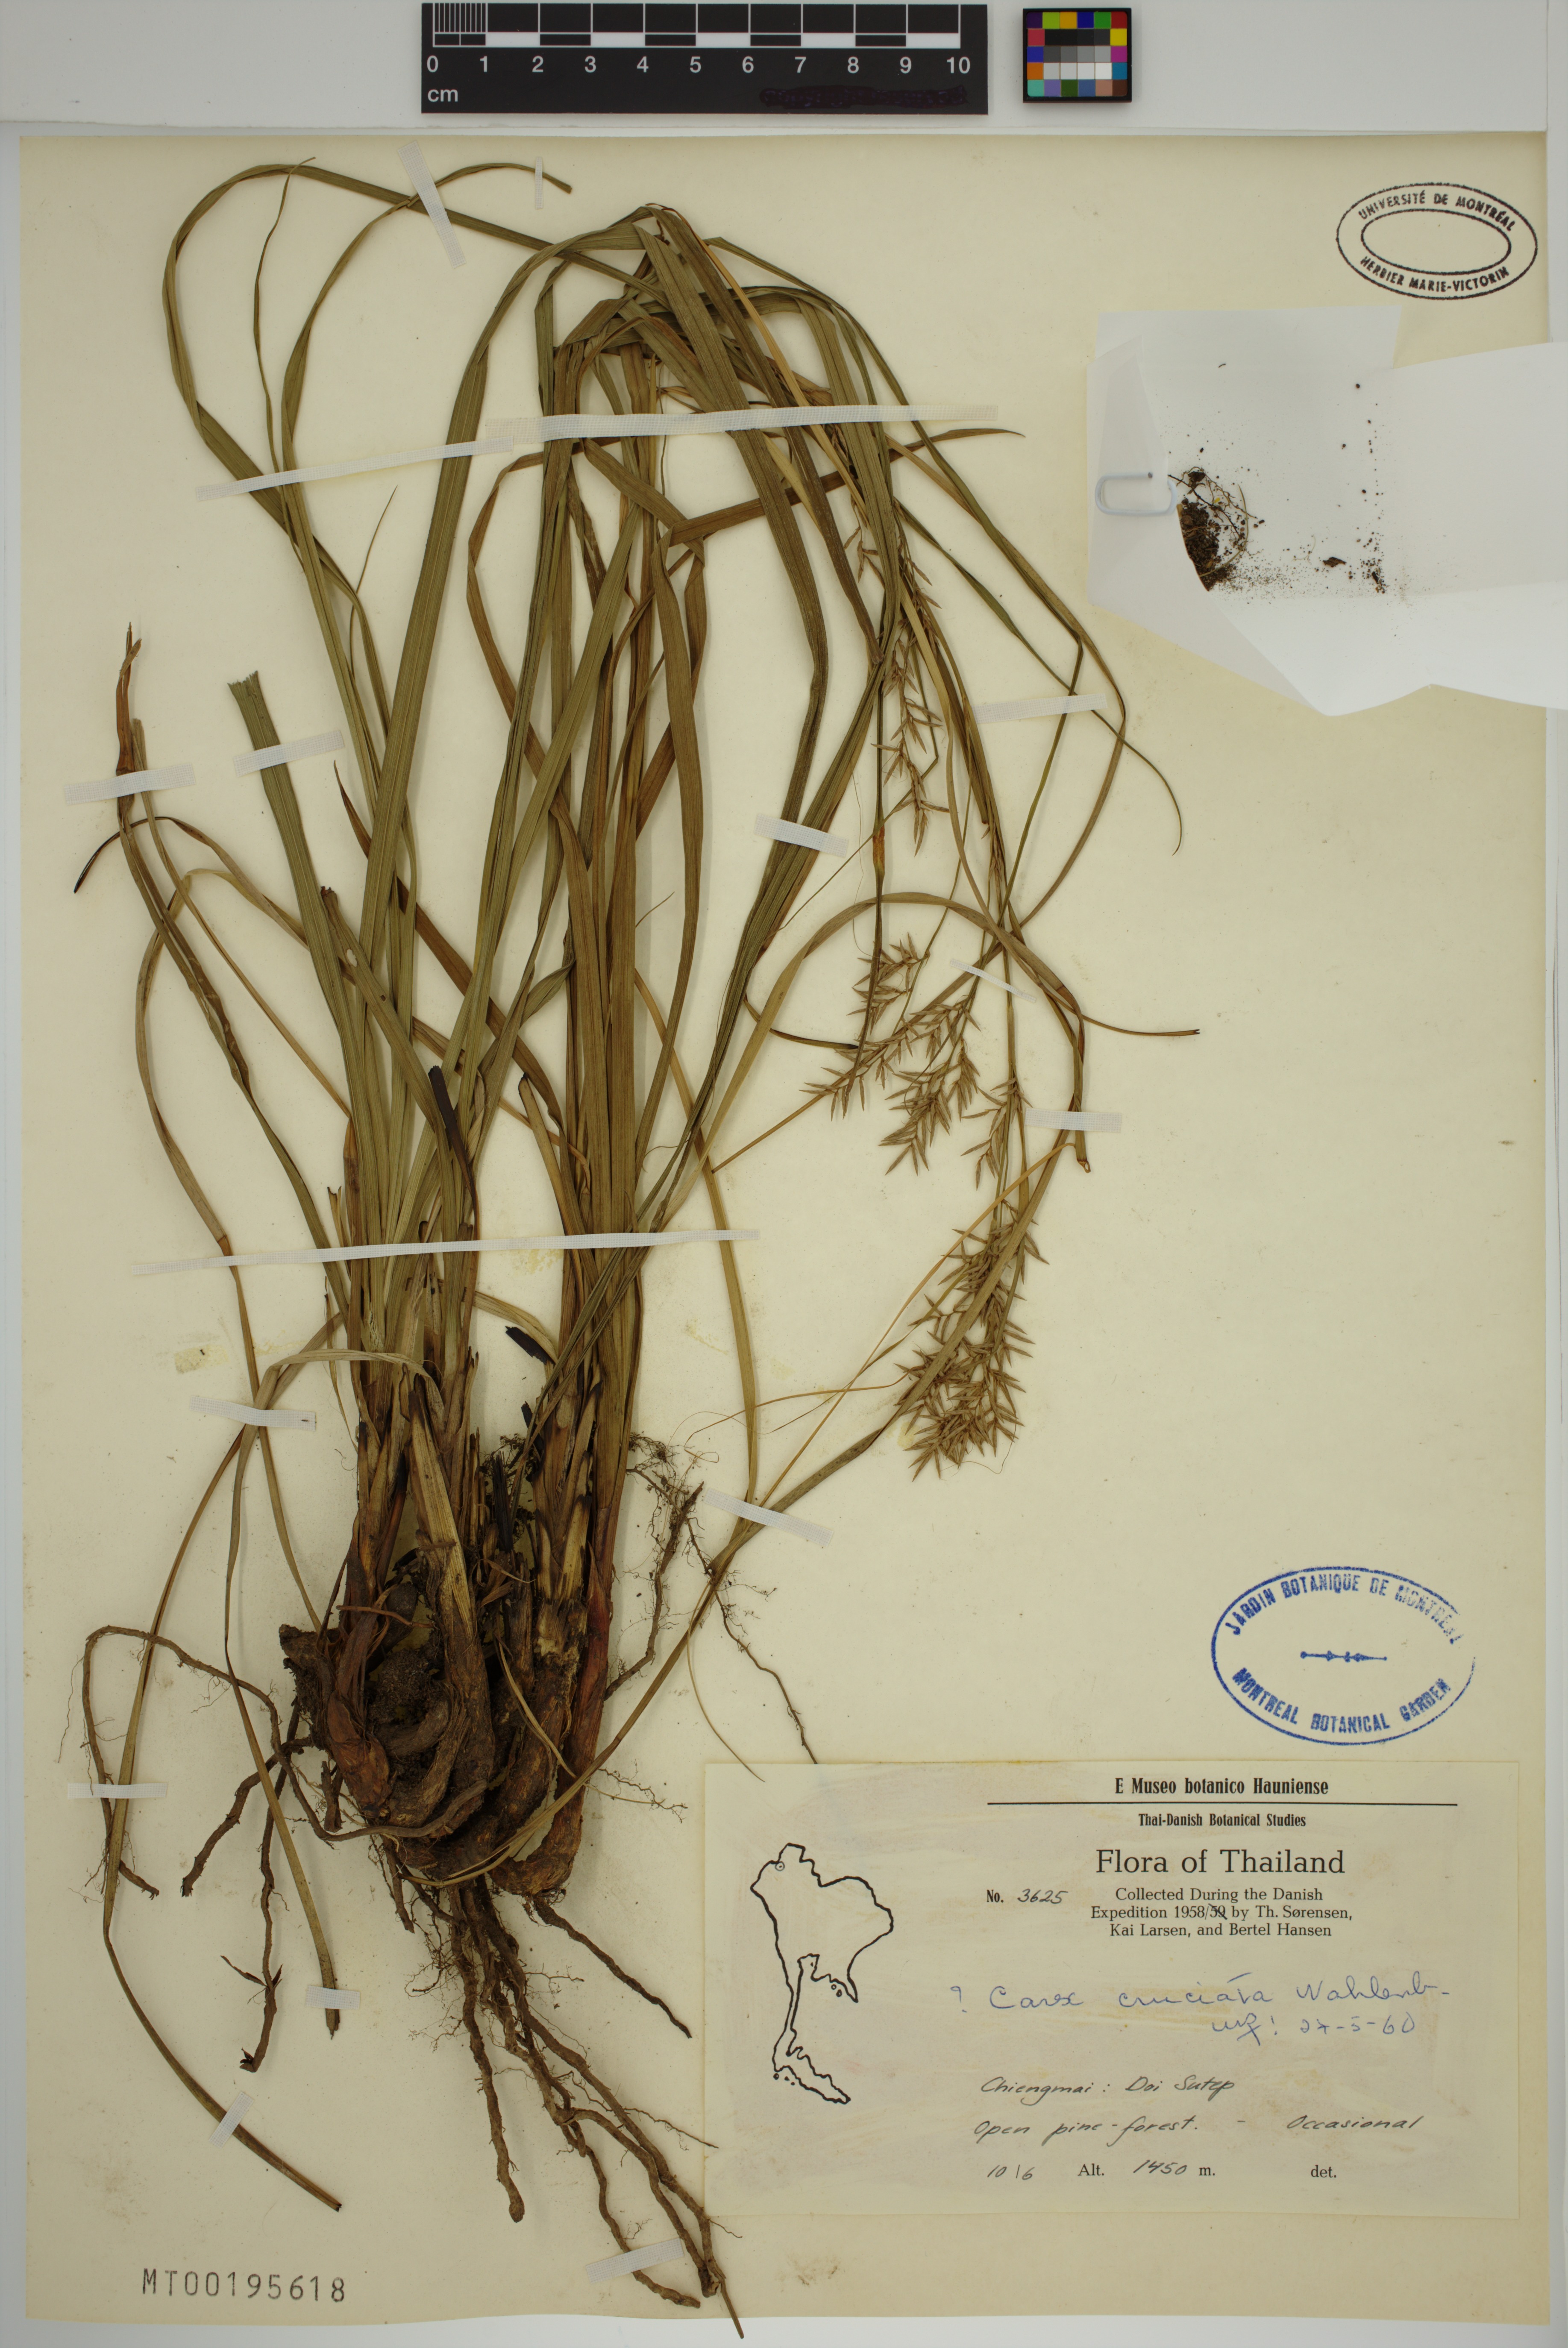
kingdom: Plantae
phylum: Tracheophyta
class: Liliopsida
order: Poales
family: Cyperaceae
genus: Carex
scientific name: Carex cruciata
